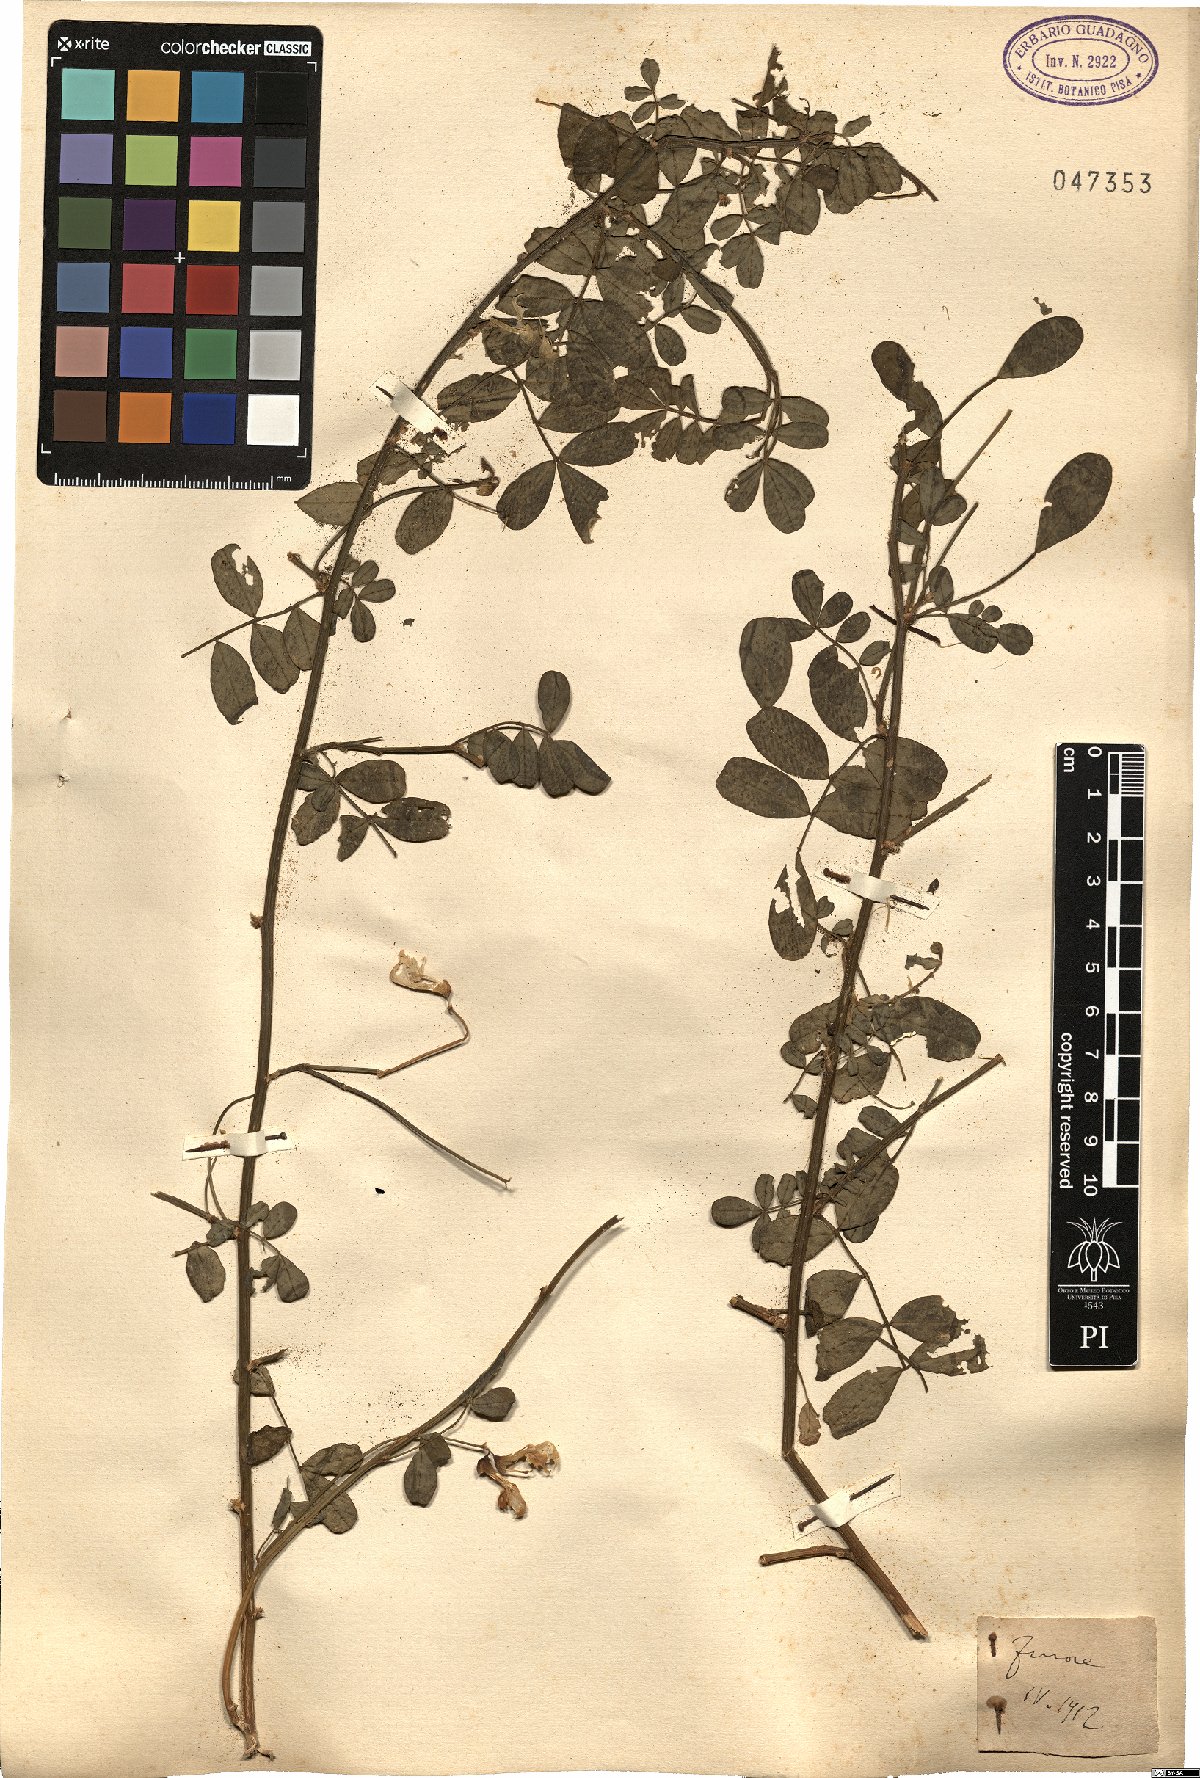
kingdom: Plantae
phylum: Tracheophyta
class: Magnoliopsida
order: Fabales
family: Fabaceae
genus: Coronilla
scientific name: Coronilla
